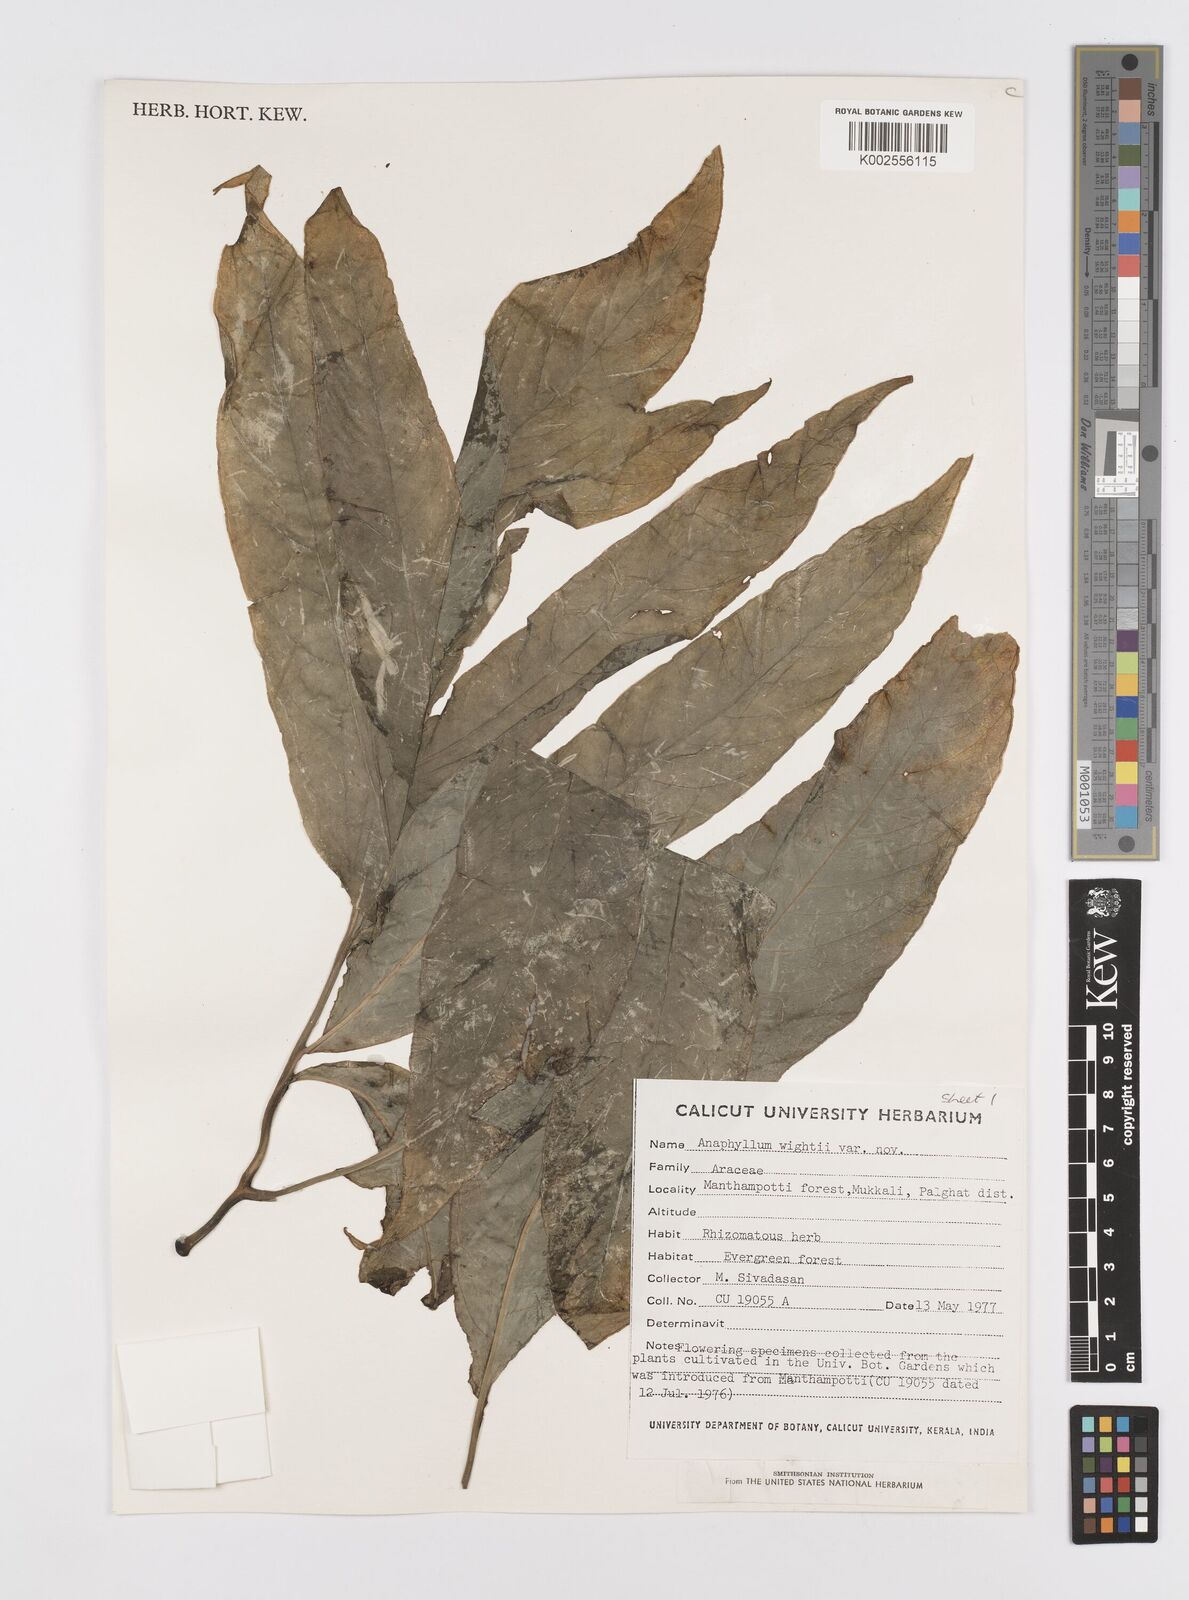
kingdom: Plantae
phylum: Tracheophyta
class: Liliopsida
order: Alismatales
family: Araceae
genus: Anaphyllum
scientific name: Anaphyllum wightii
